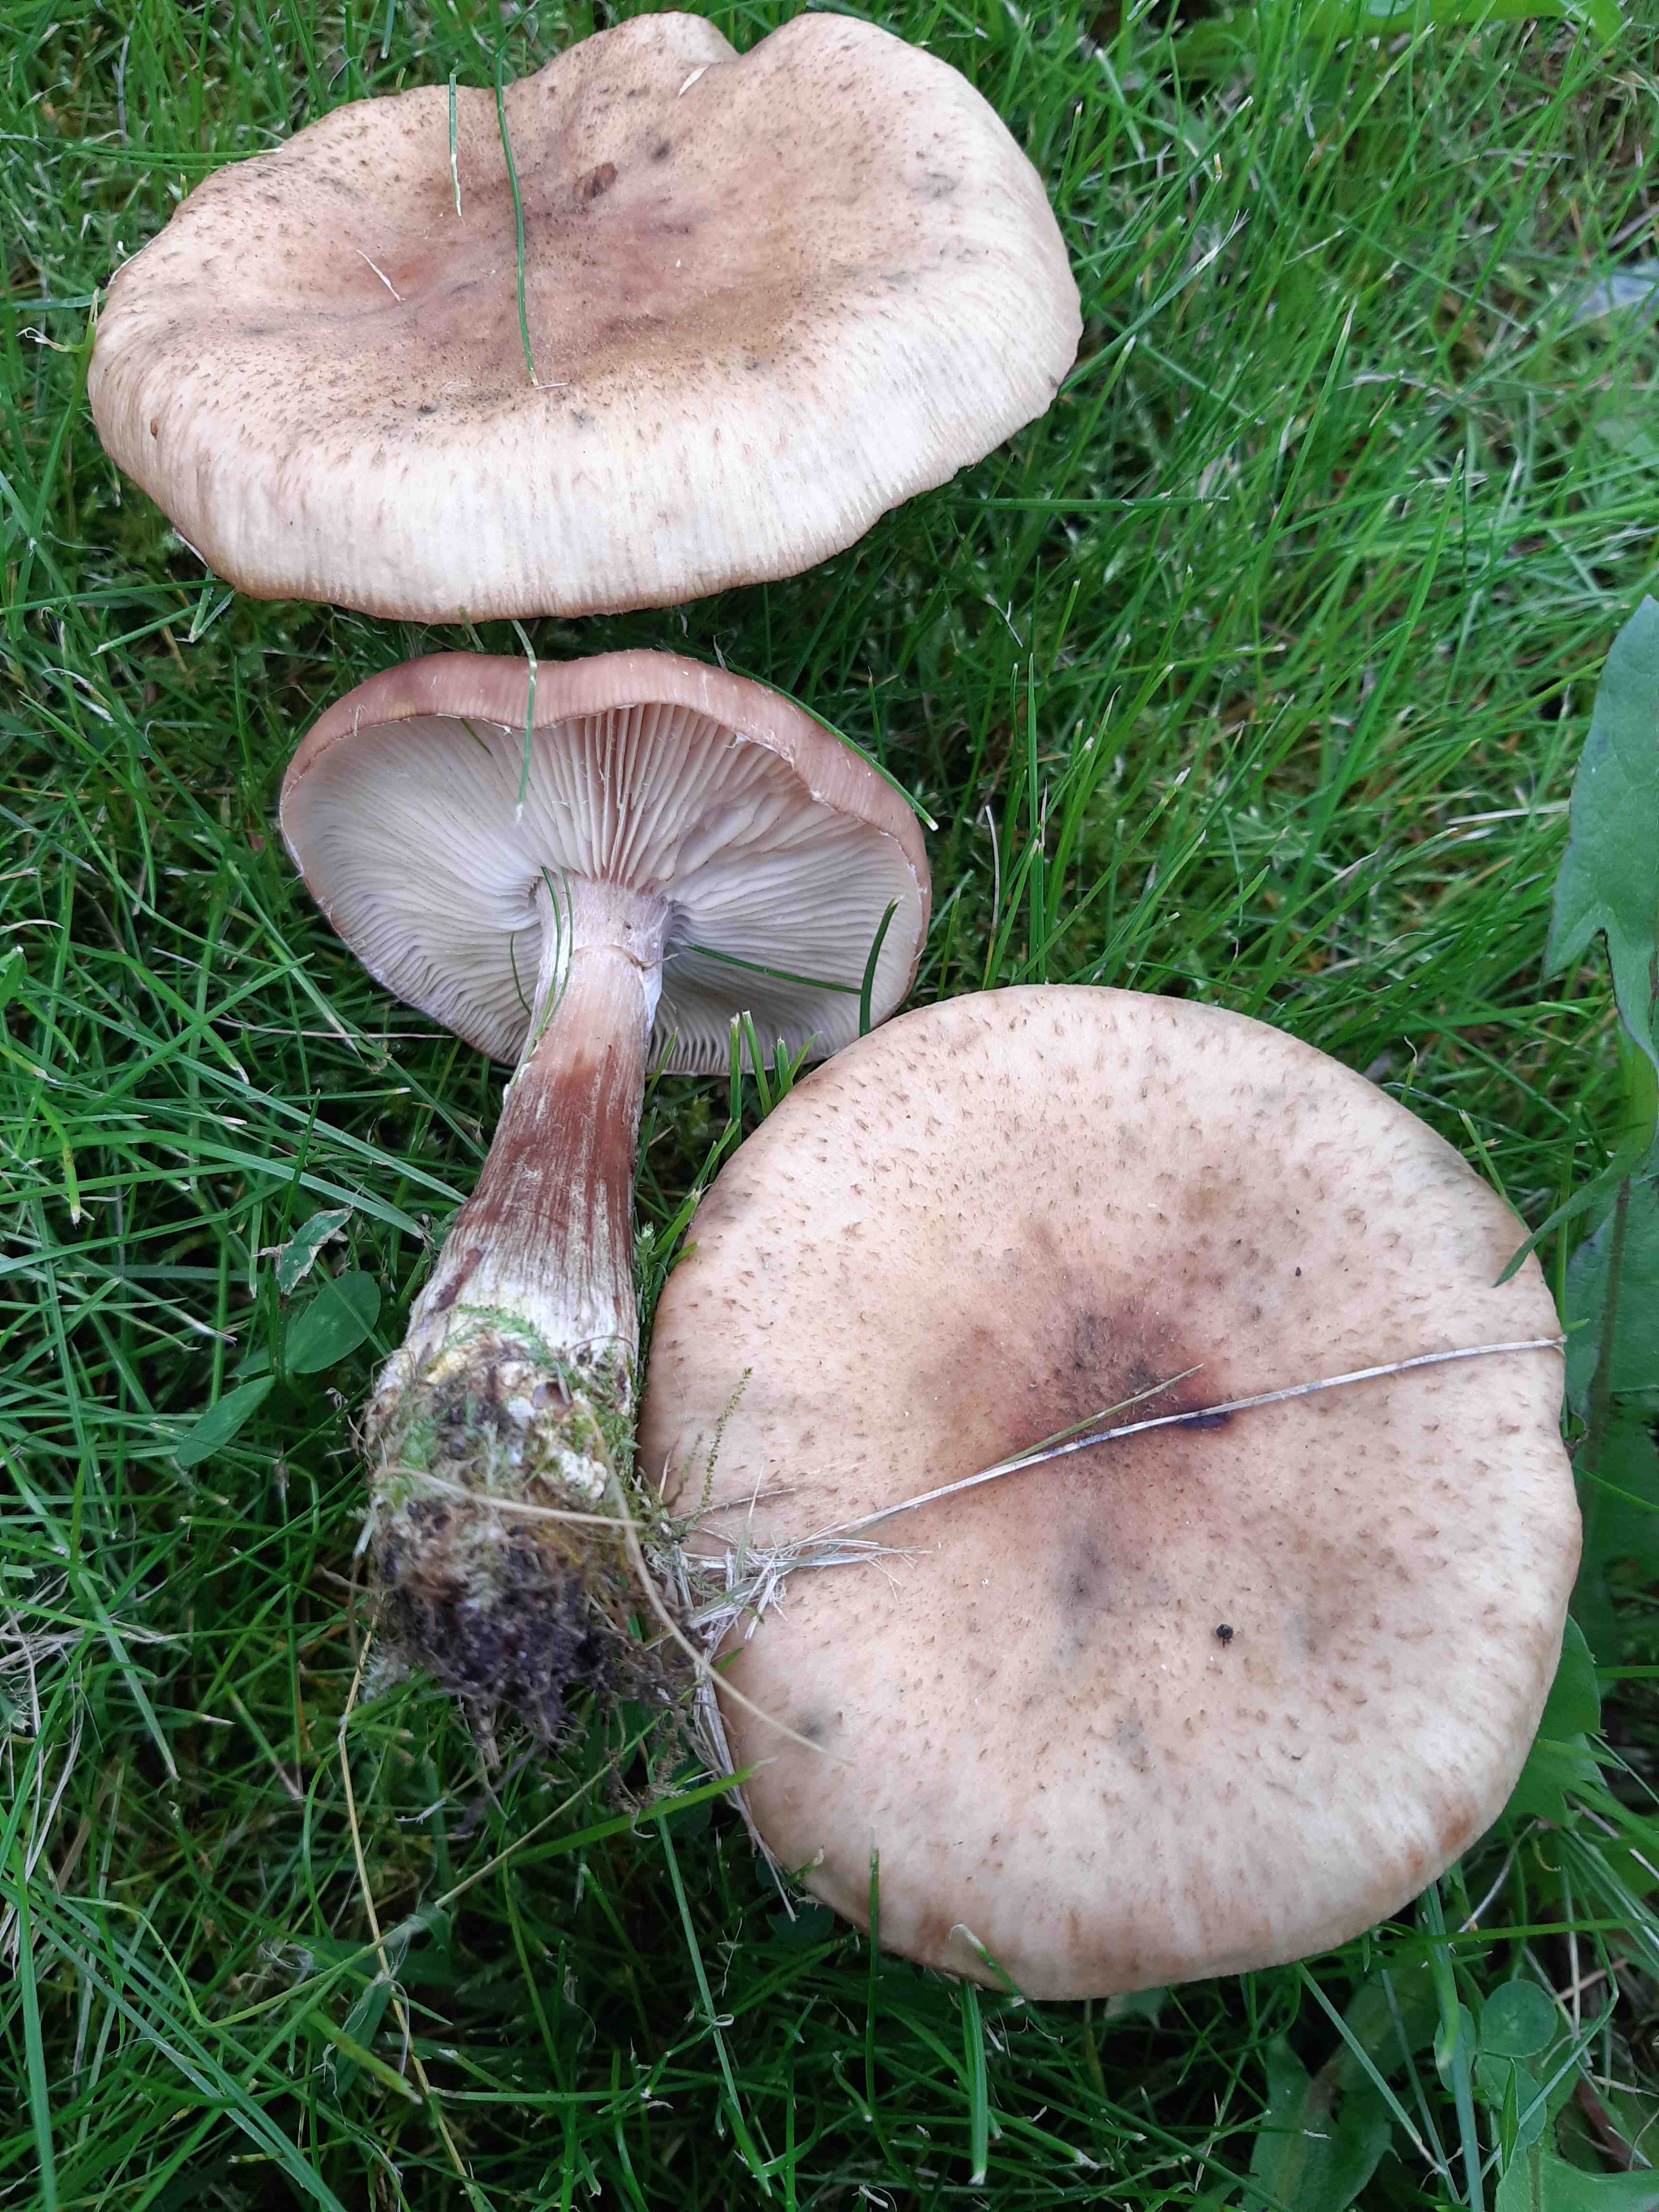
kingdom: Fungi
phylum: Basidiomycota
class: Agaricomycetes
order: Agaricales
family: Physalacriaceae
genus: Armillaria
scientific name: Armillaria
